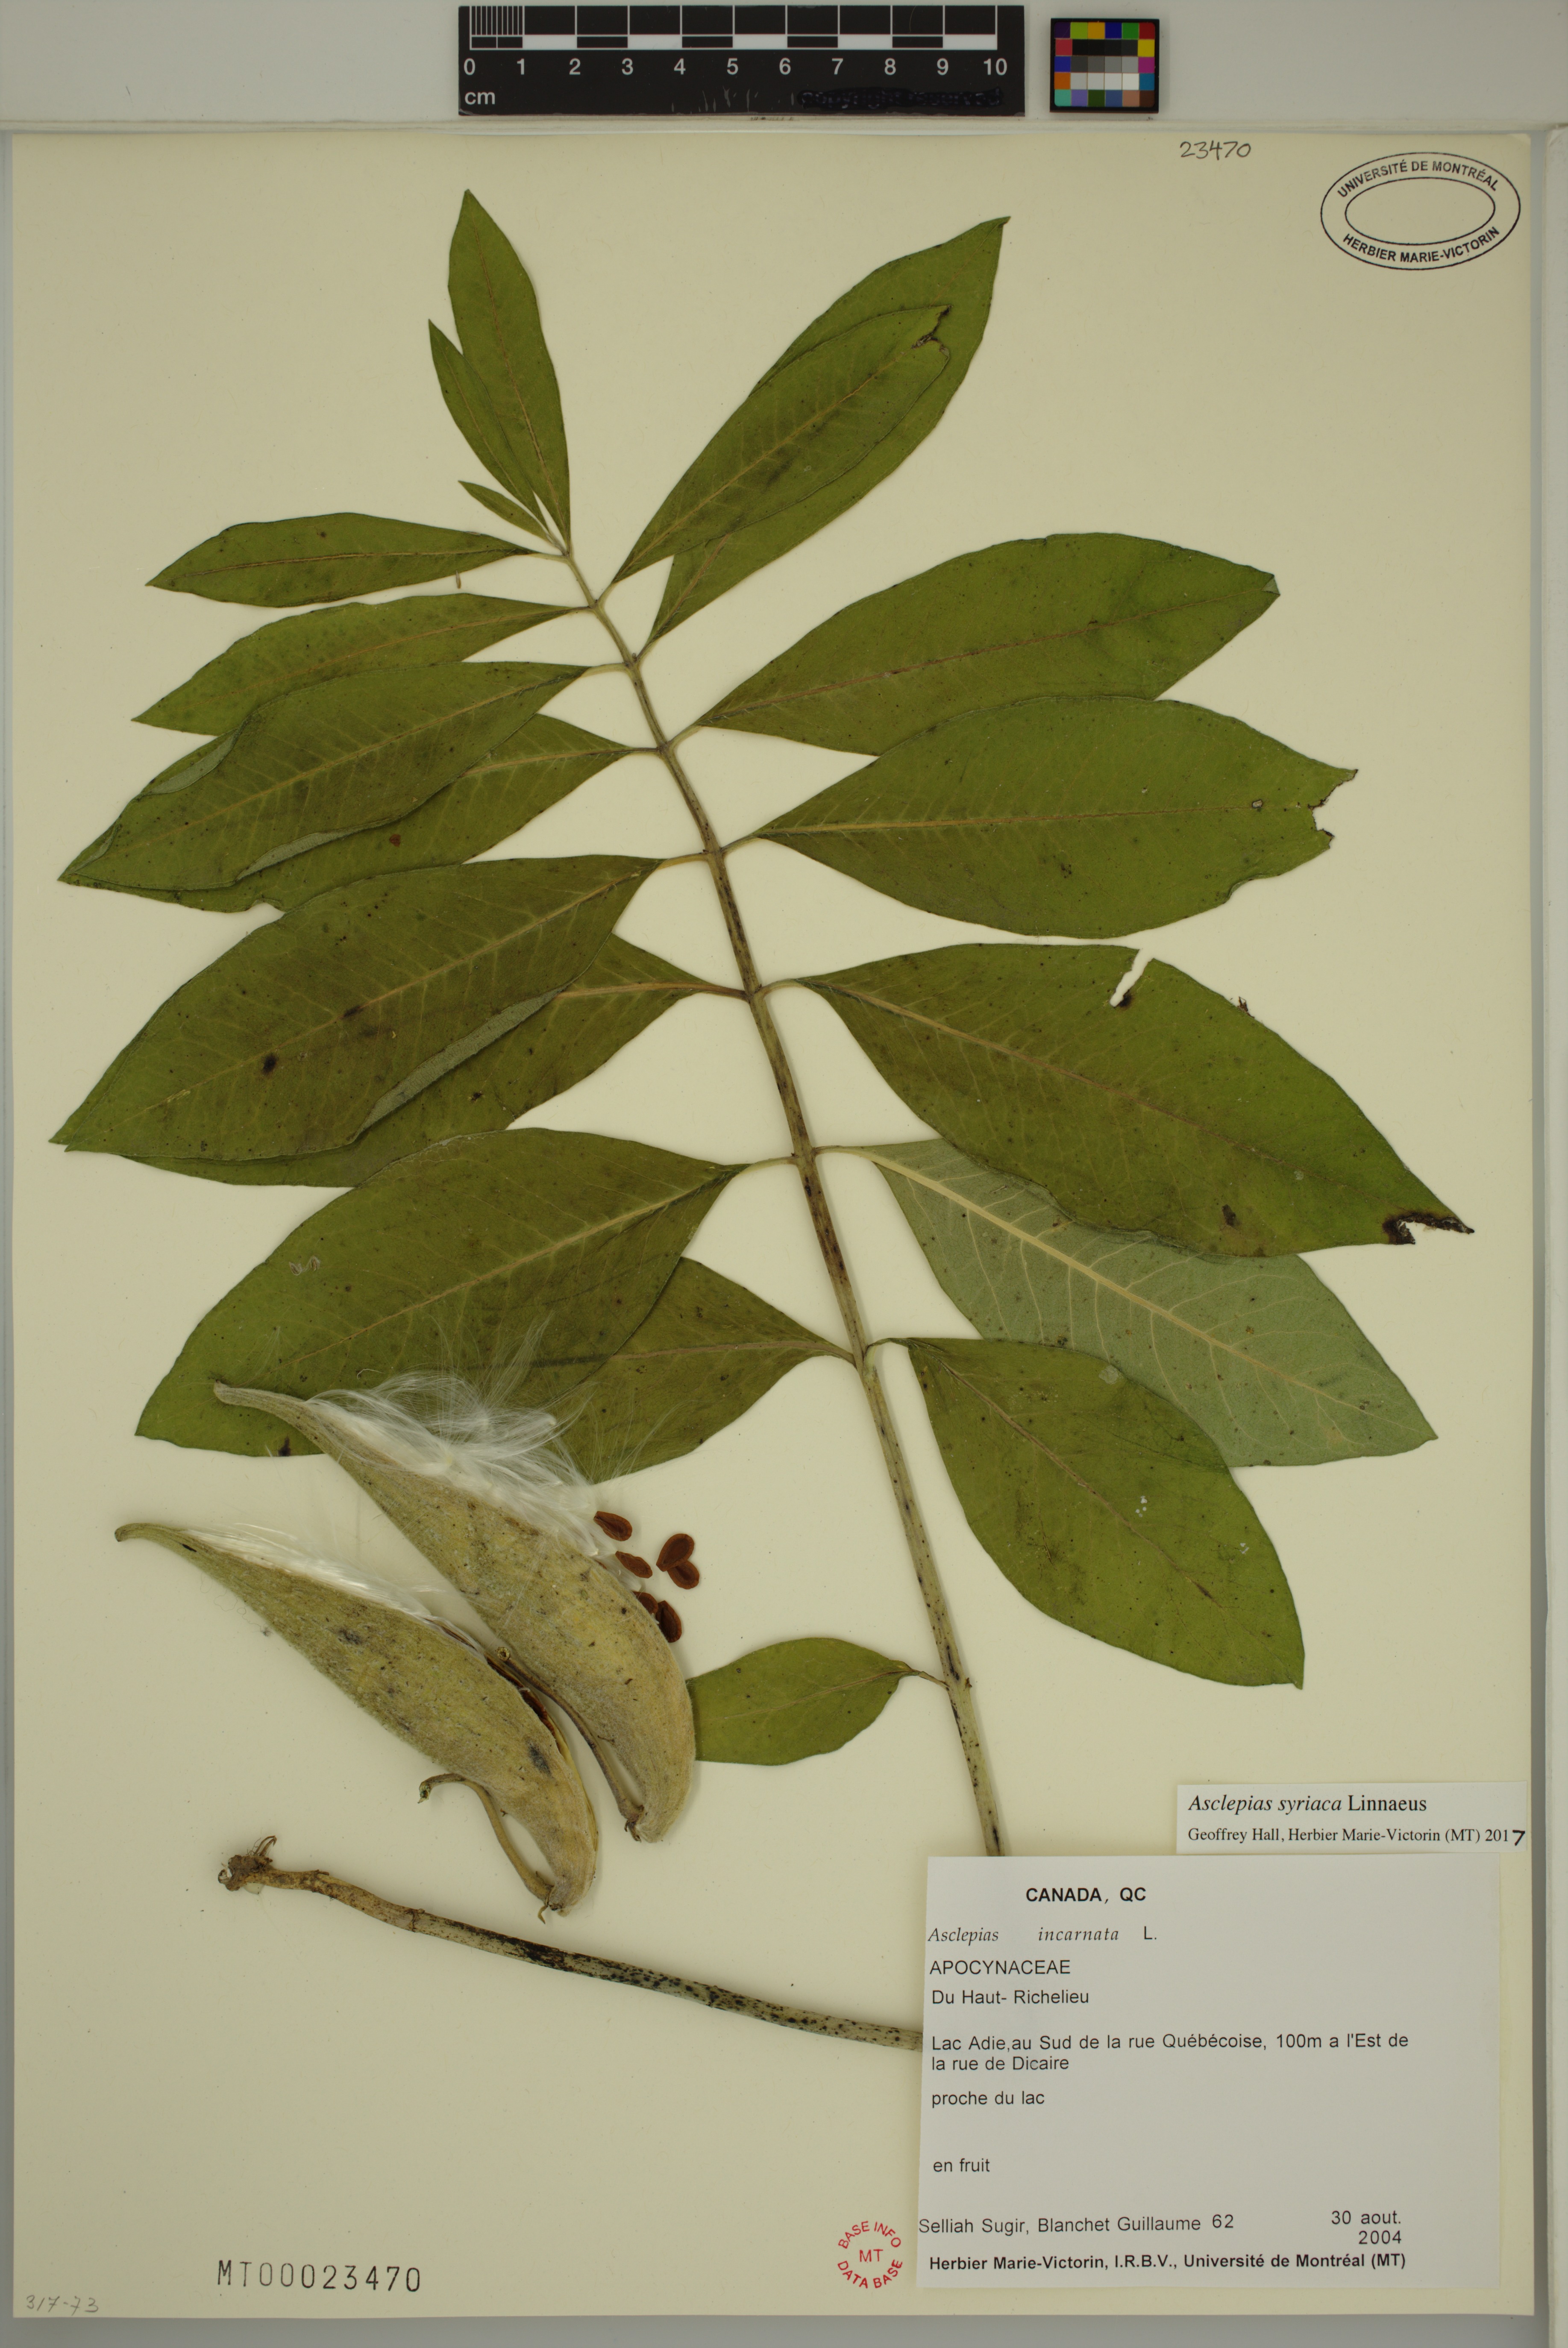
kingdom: Plantae
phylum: Tracheophyta
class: Magnoliopsida
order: Gentianales
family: Apocynaceae
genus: Asclepias
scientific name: Asclepias syriaca
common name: Common milkweed
